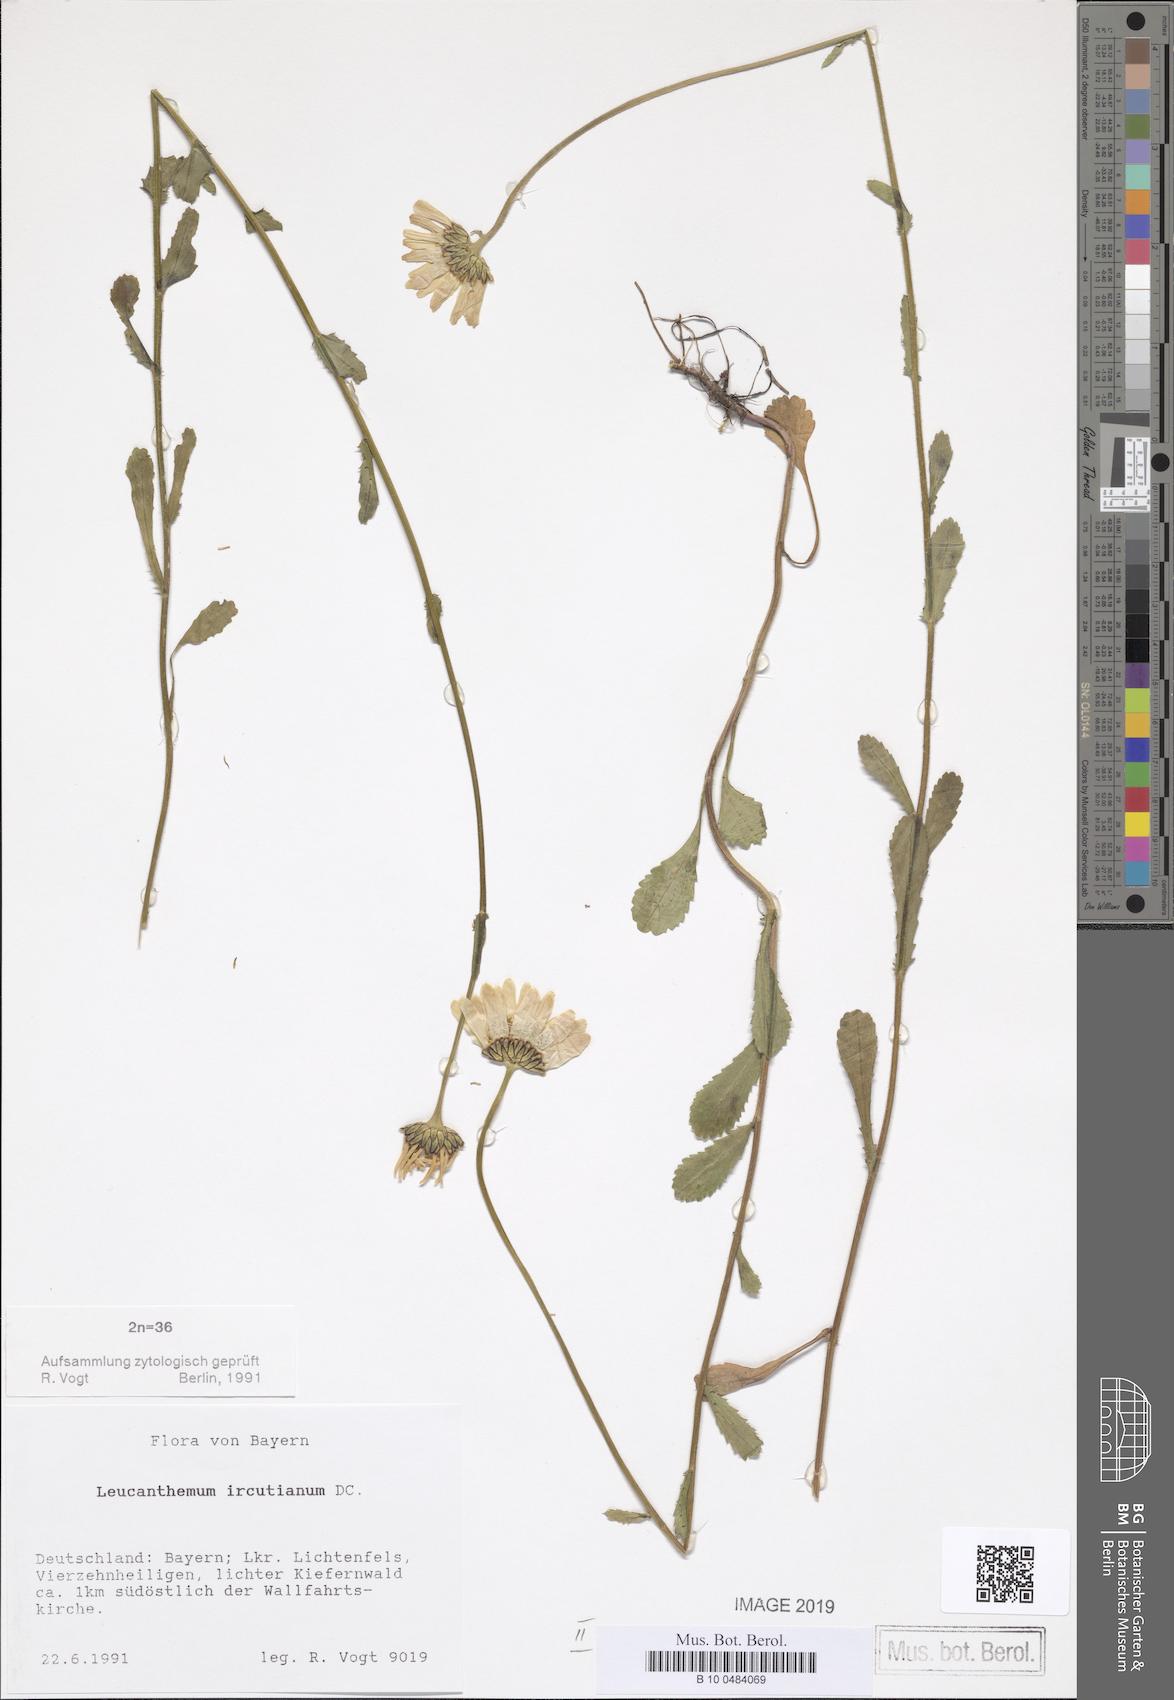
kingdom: Plantae
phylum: Tracheophyta
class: Magnoliopsida
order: Asterales
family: Asteraceae
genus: Leucanthemum
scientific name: Leucanthemum ircutianum
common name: Daisy
